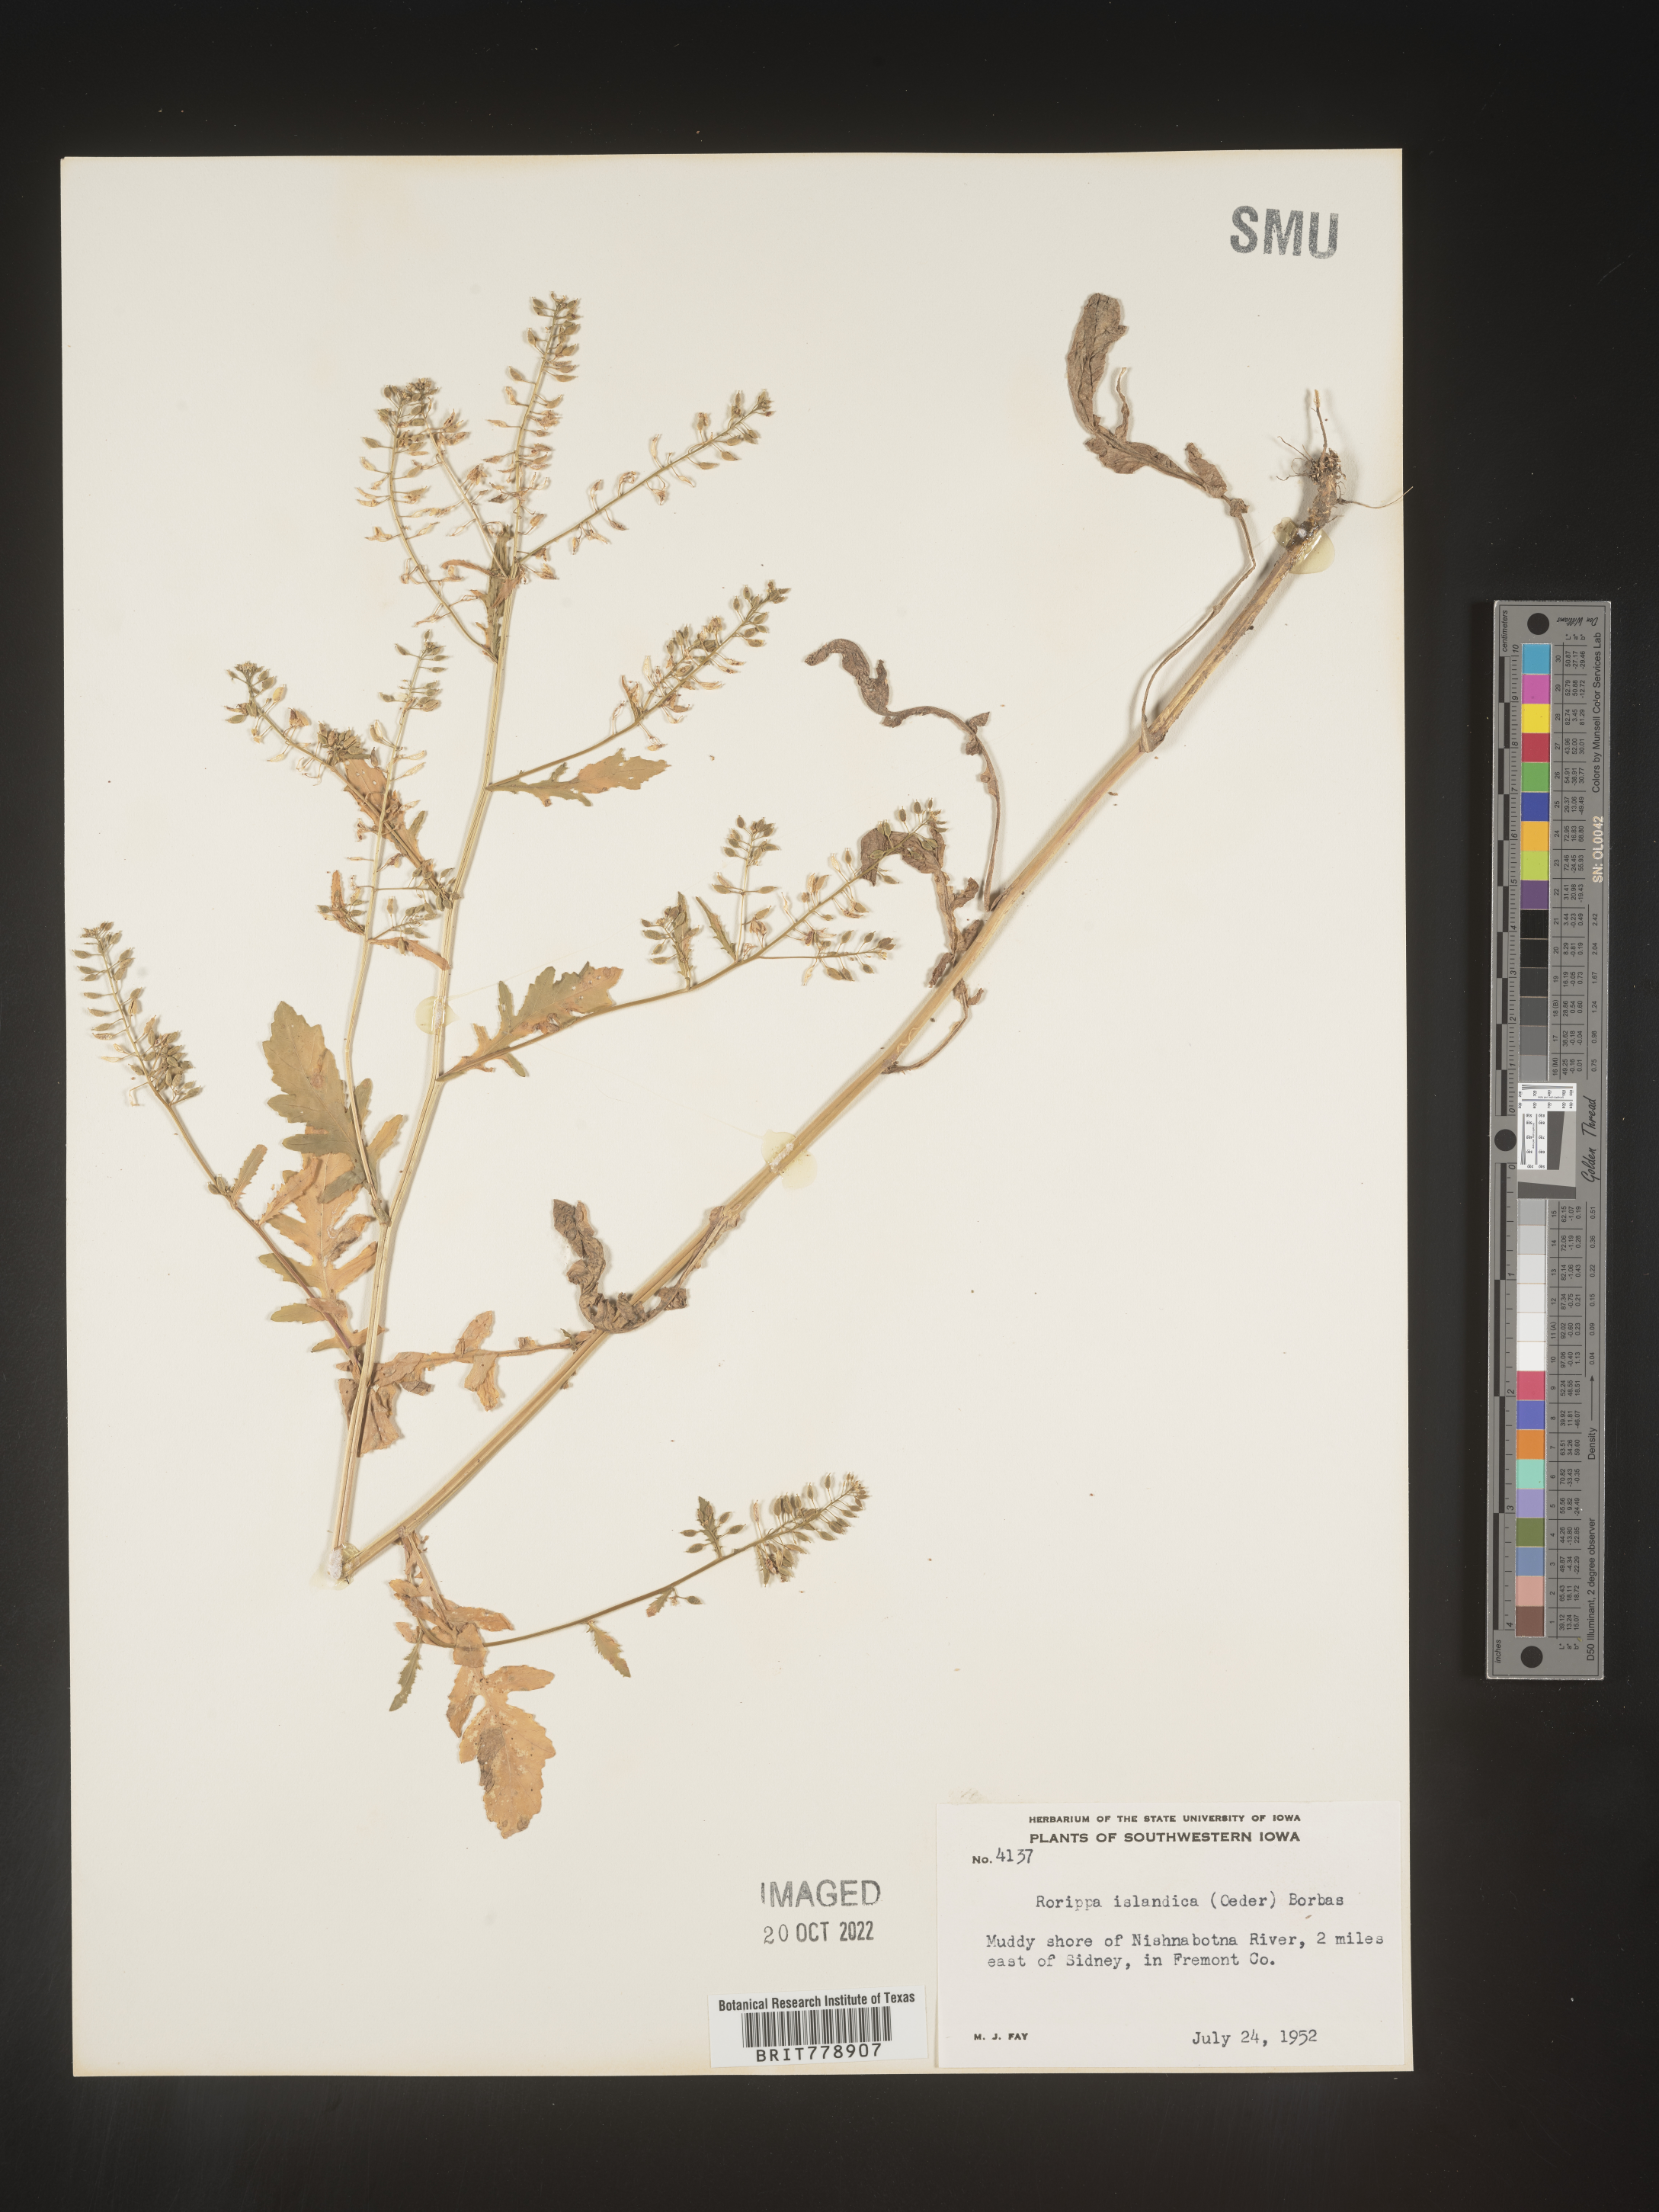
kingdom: Plantae
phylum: Tracheophyta
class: Magnoliopsida
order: Brassicales
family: Brassicaceae
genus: Rorippa
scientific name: Rorippa palustris
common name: Marsh yellow-cress
